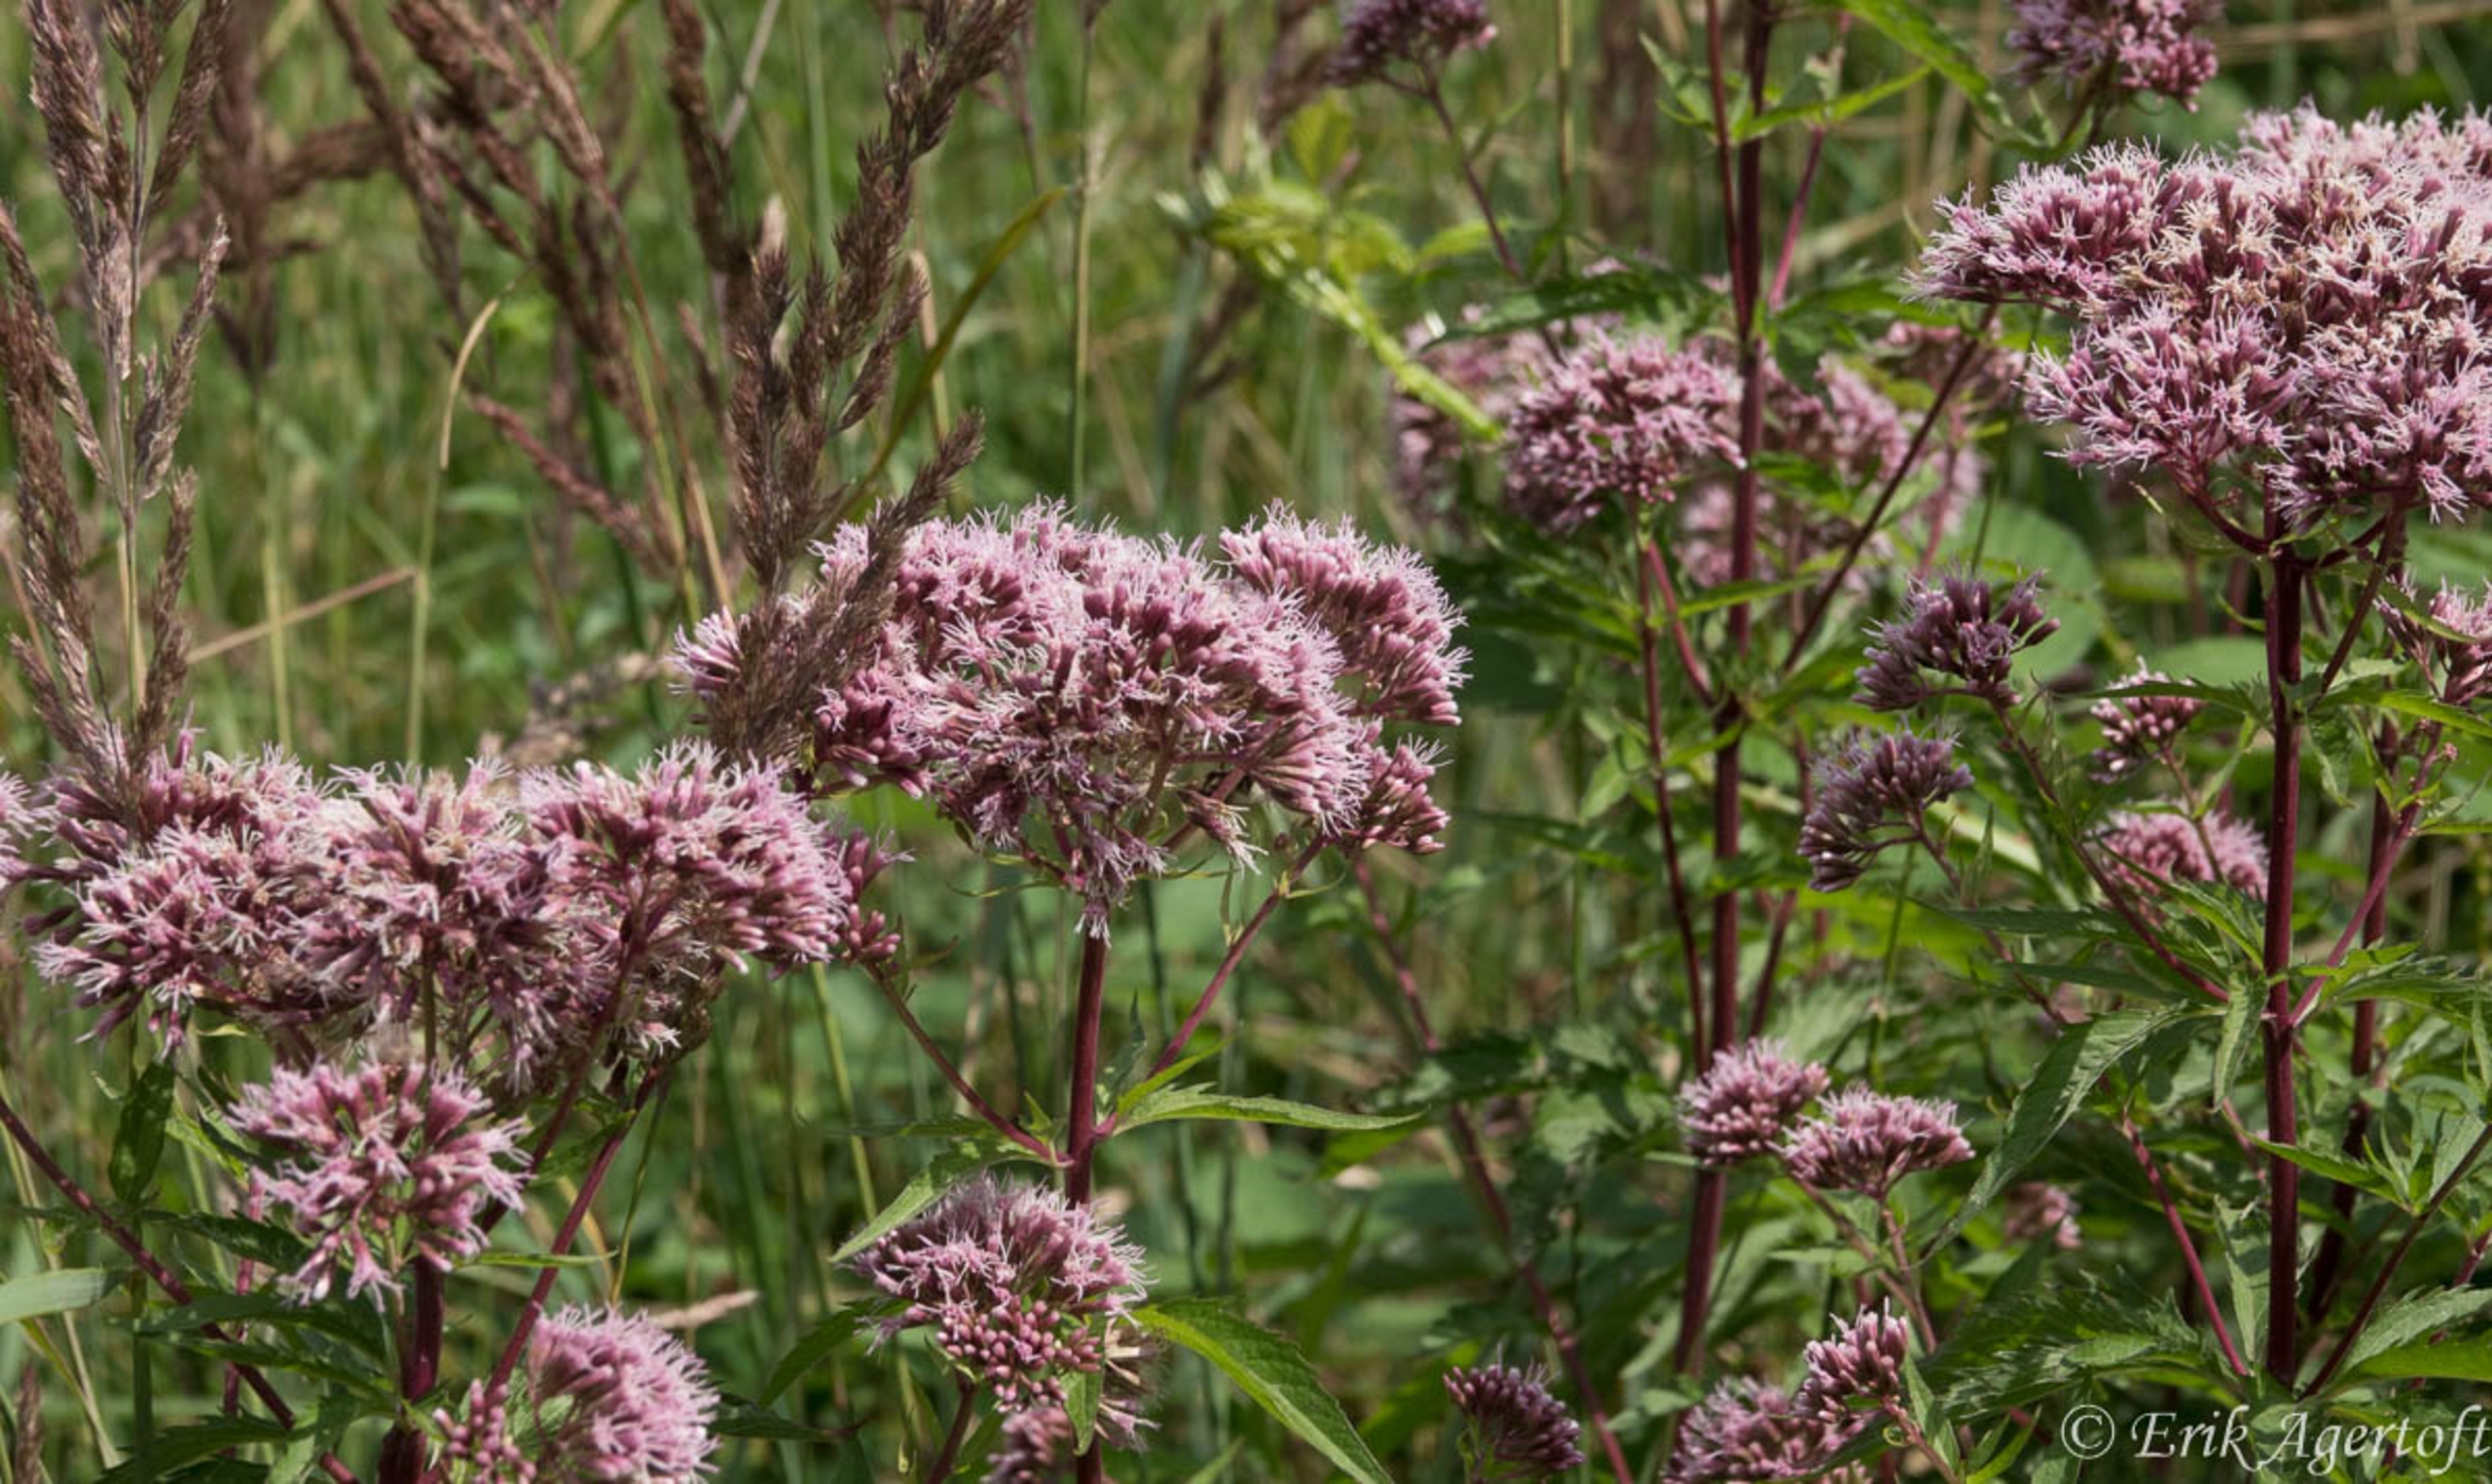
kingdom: Plantae
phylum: Tracheophyta
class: Magnoliopsida
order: Asterales
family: Asteraceae
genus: Eupatorium
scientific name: Eupatorium cannabinum
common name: Hjortetrøst
